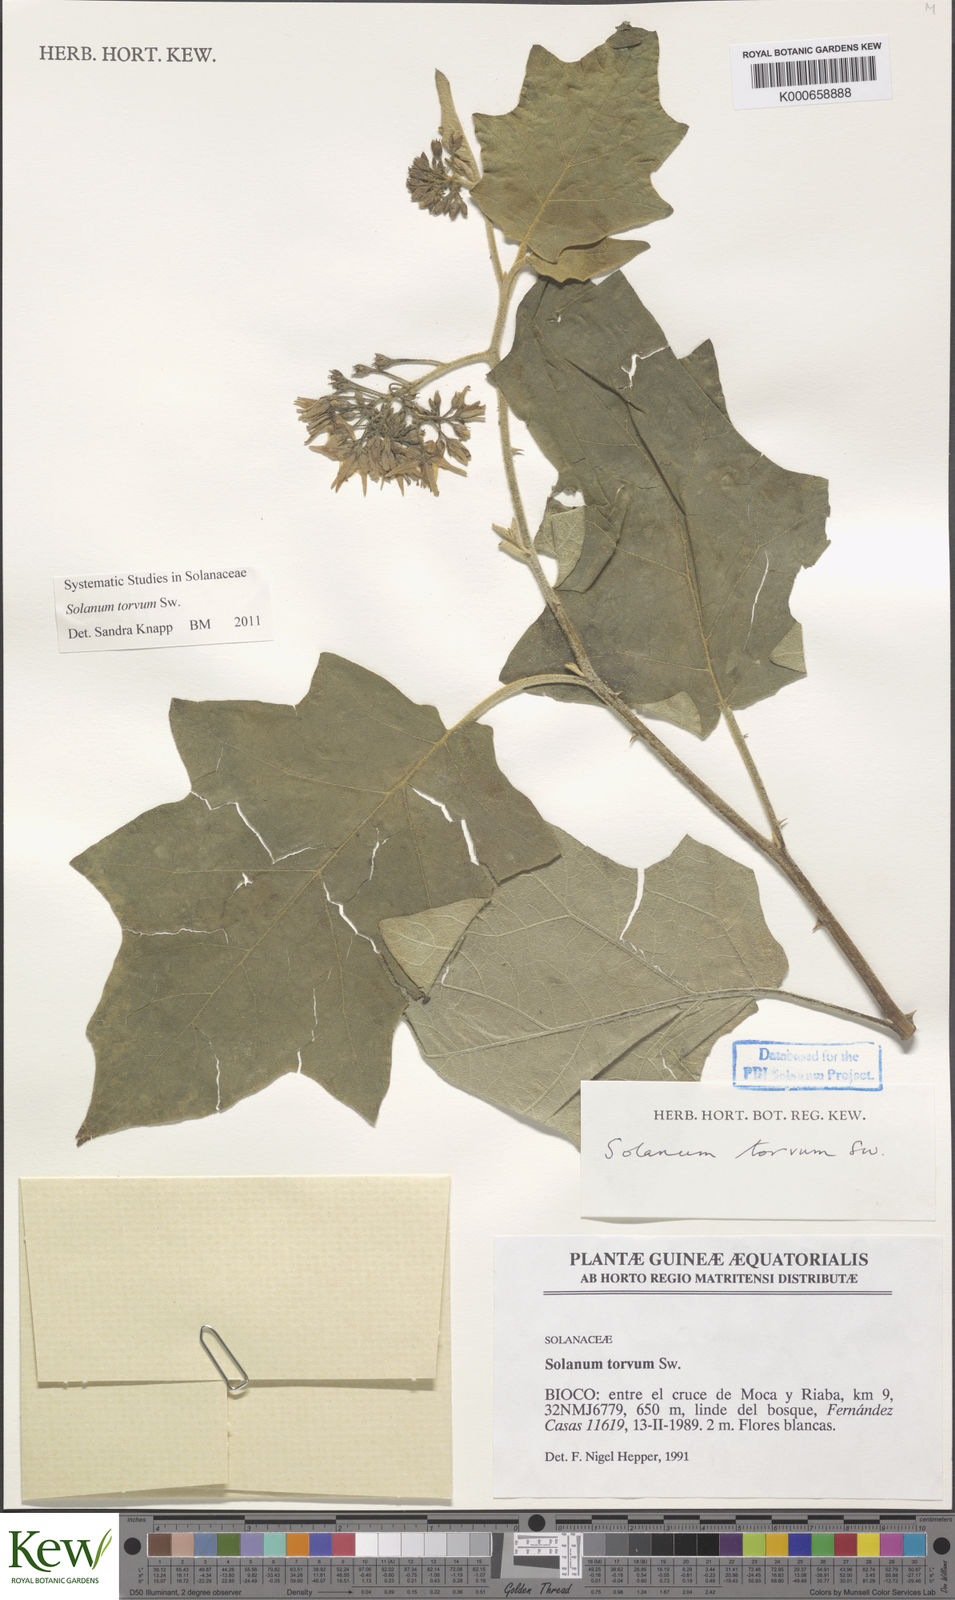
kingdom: Plantae
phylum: Tracheophyta
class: Magnoliopsida
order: Solanales
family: Solanaceae
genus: Solanum
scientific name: Solanum torvum
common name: Turkey berry
